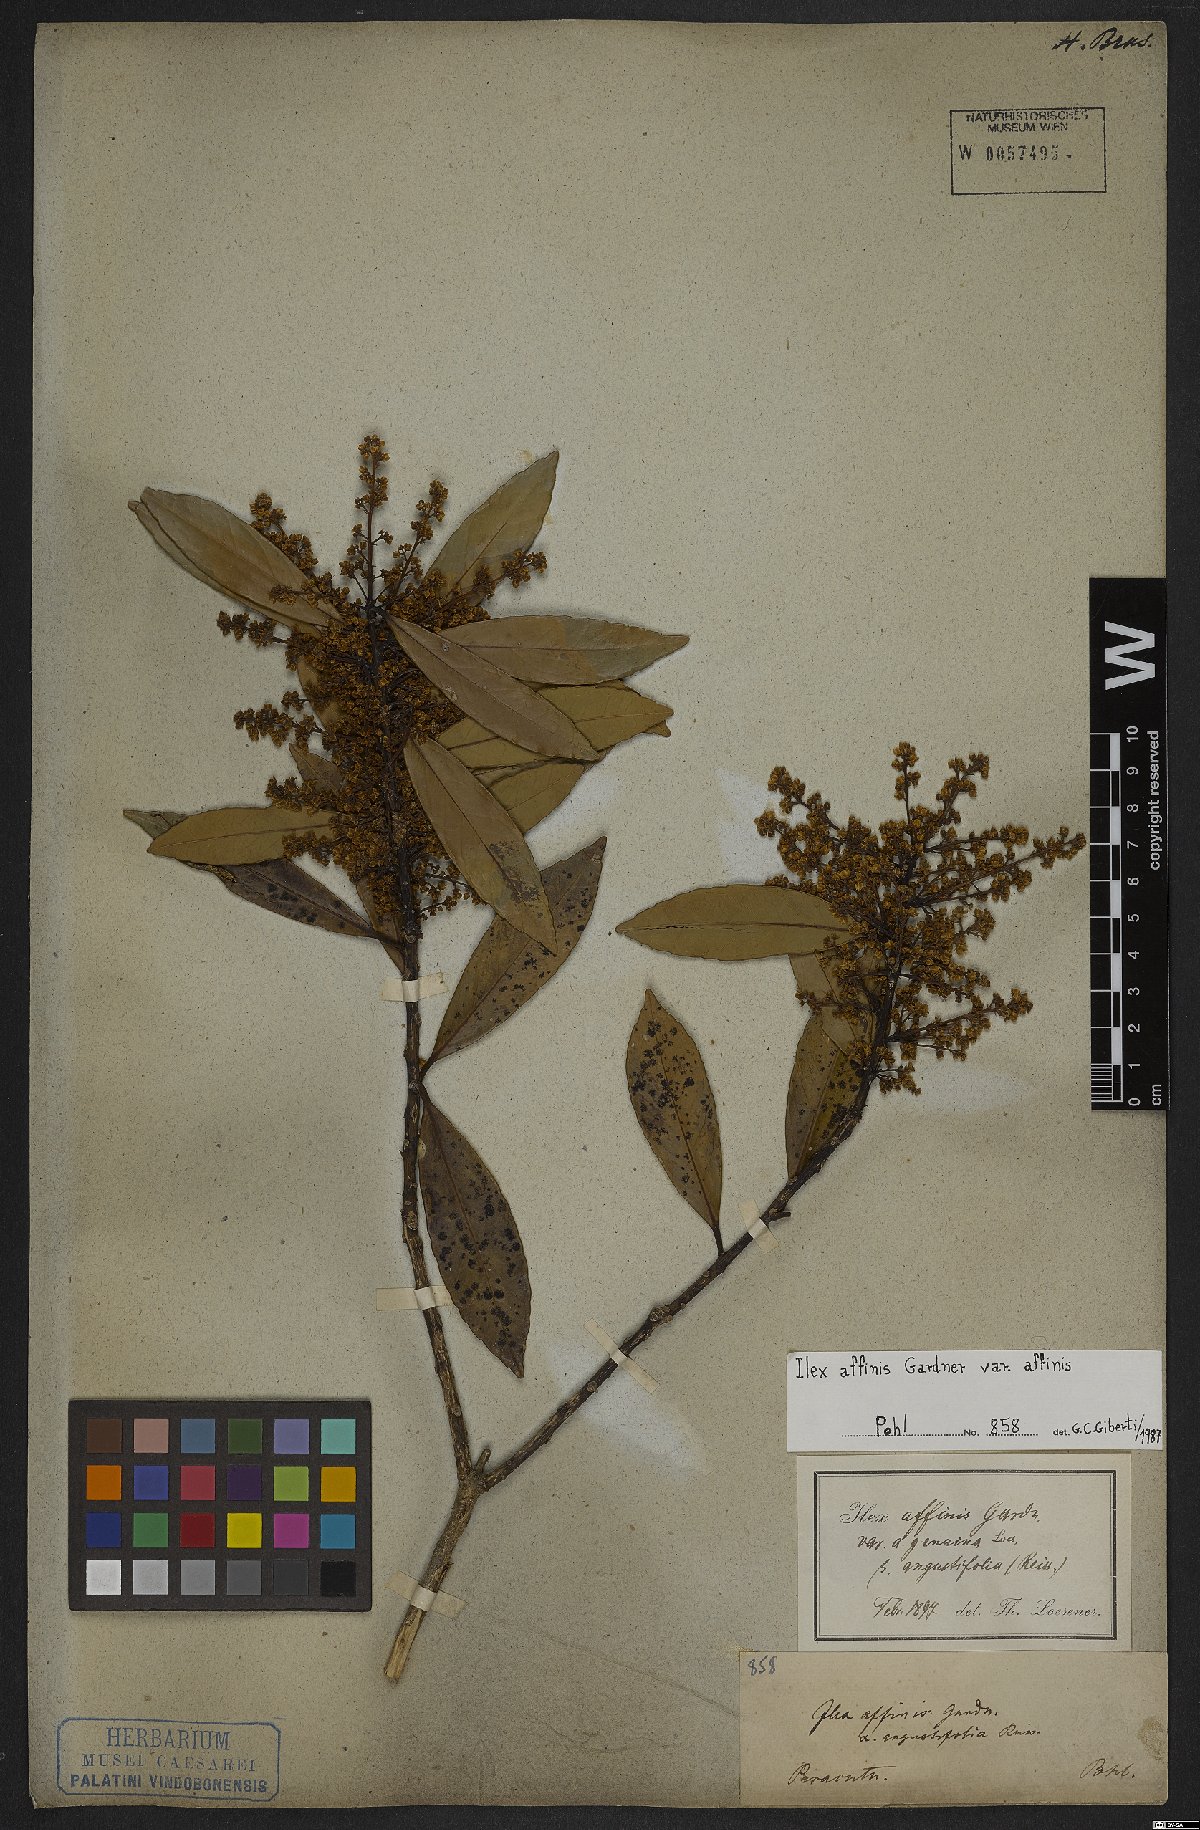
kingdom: Plantae
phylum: Tracheophyta
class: Magnoliopsida
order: Aquifoliales
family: Aquifoliaceae
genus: Ilex
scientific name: Ilex affinis
